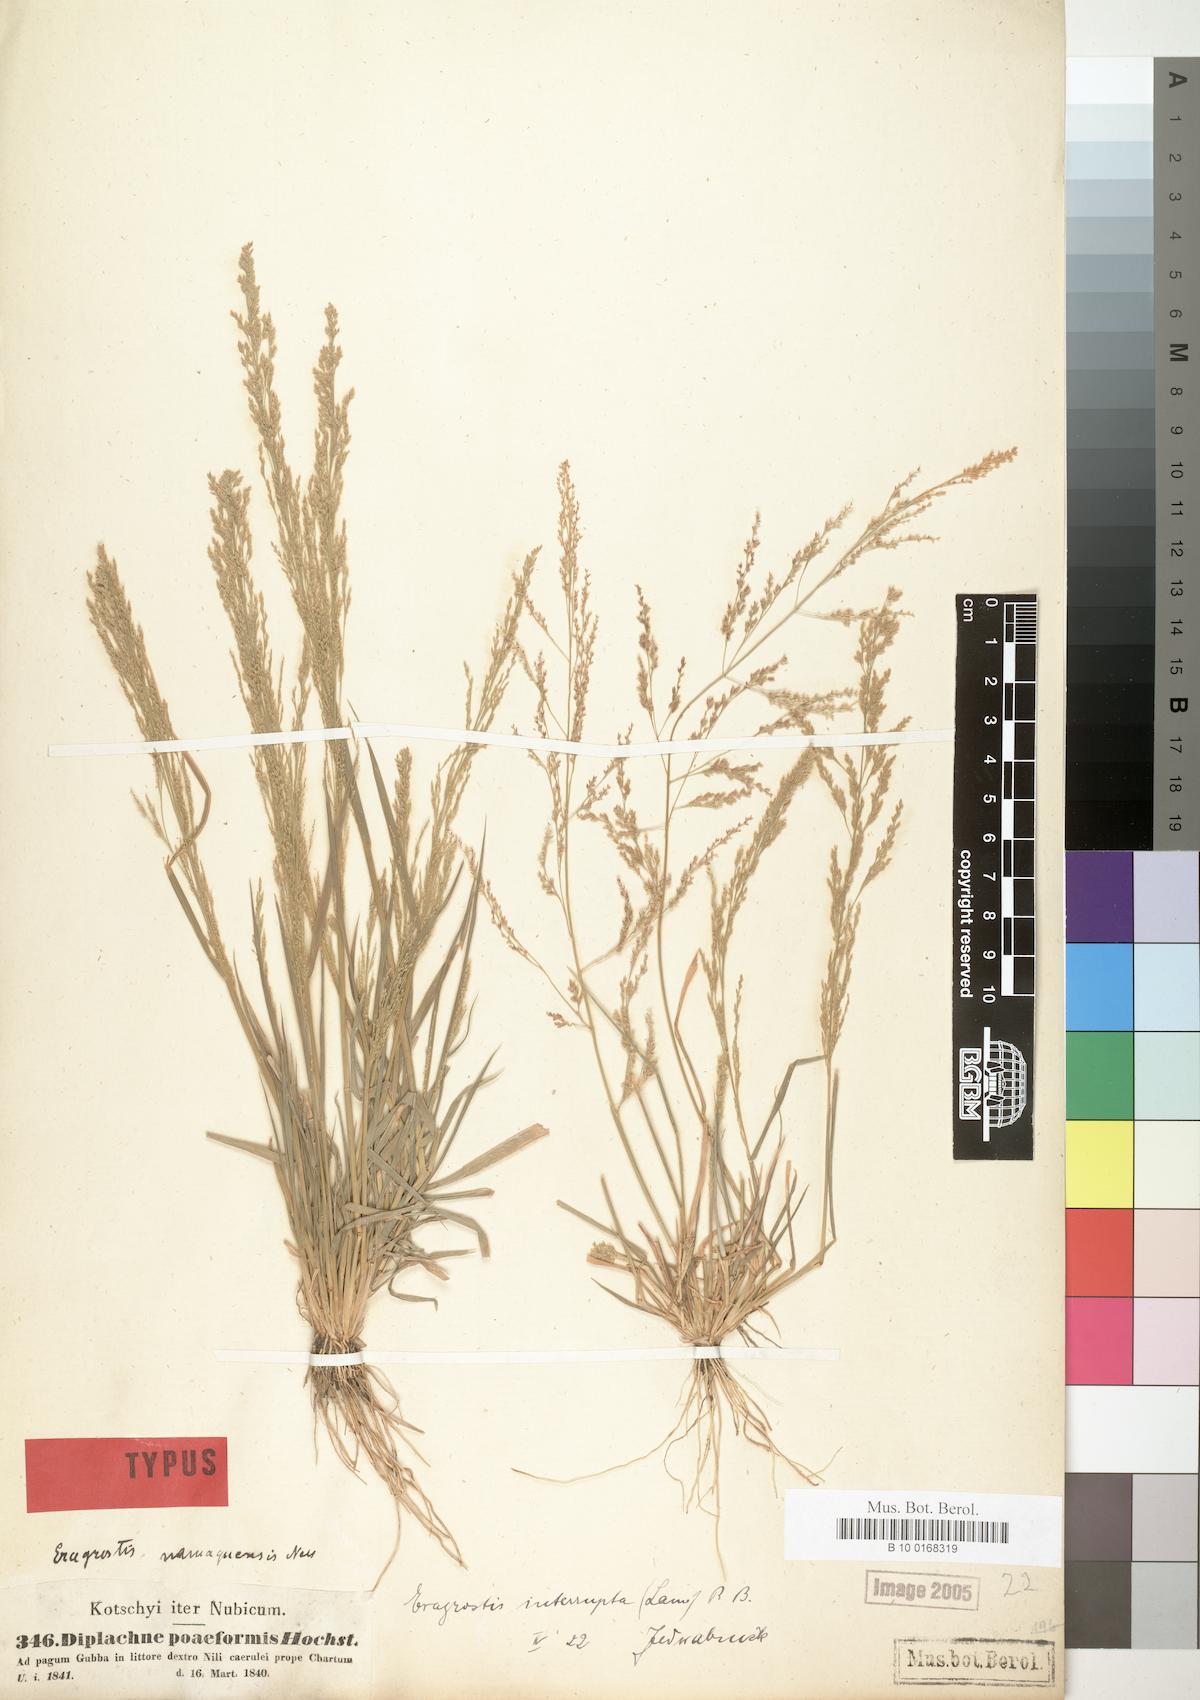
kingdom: Plantae
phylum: Tracheophyta
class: Liliopsida
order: Poales
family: Poaceae
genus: Eragrostis
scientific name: Eragrostis japonica
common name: Pond lovegrass
